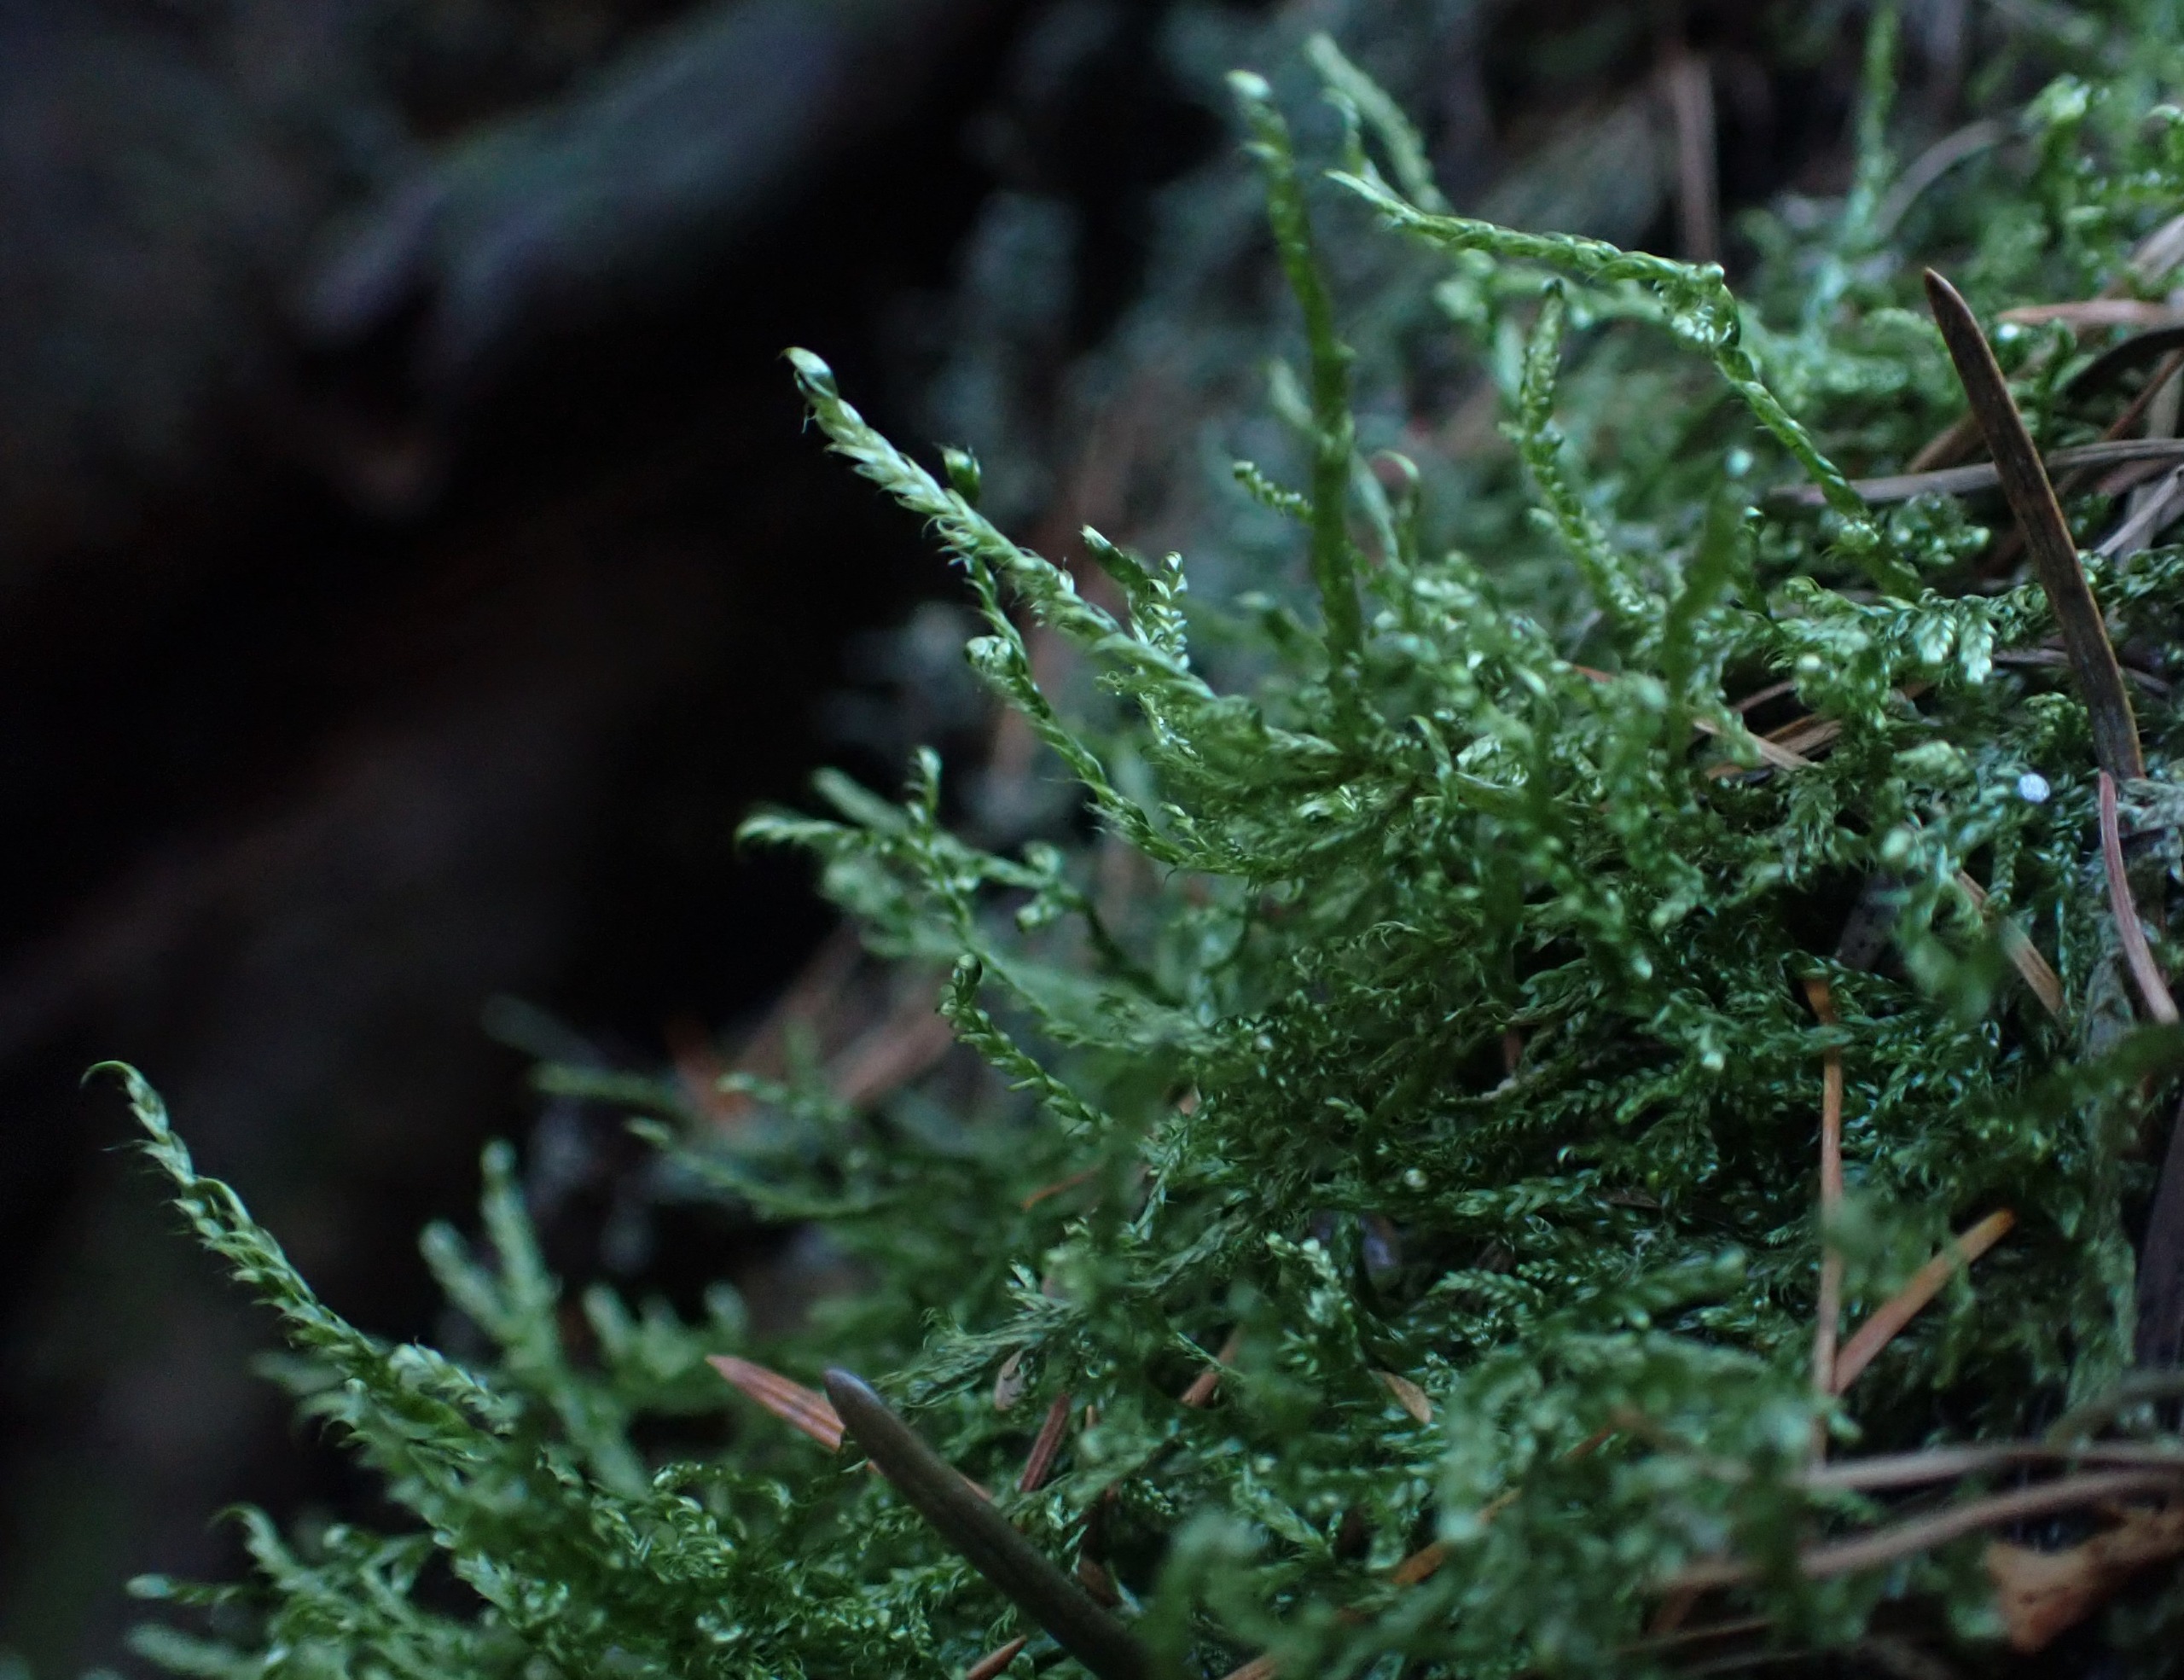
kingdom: Plantae
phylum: Bryophyta
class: Bryopsida
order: Hypnales
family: Hypnaceae
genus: Hypnum
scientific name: Hypnum jutlandicum
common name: Hede-cypresmos
